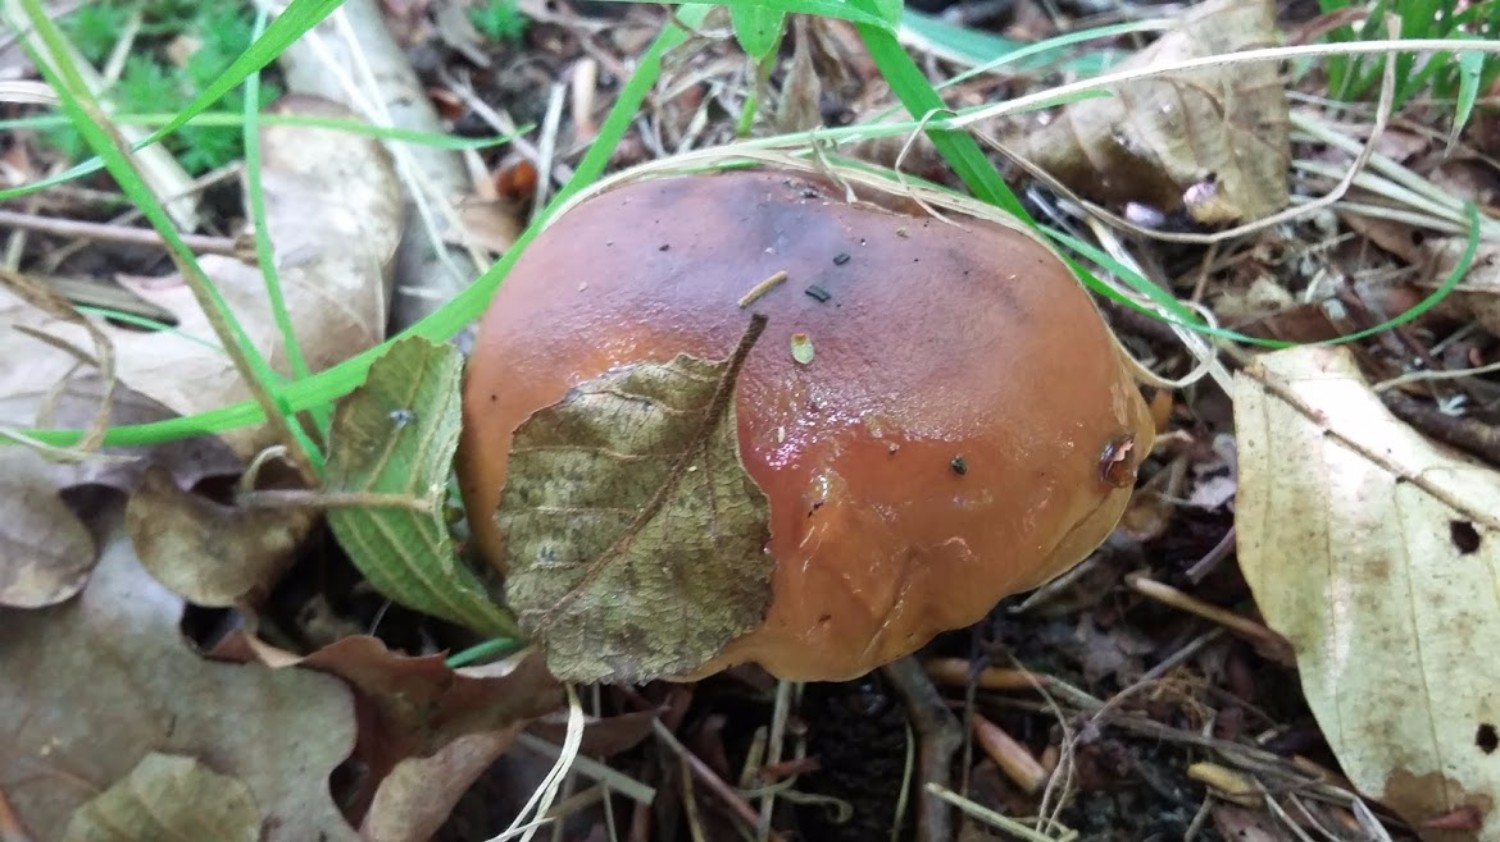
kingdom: Fungi
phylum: Basidiomycota
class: Agaricomycetes
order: Agaricales
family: Tricholomataceae
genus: Tricholoma
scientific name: Tricholoma ustale
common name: sveden ridderhat
